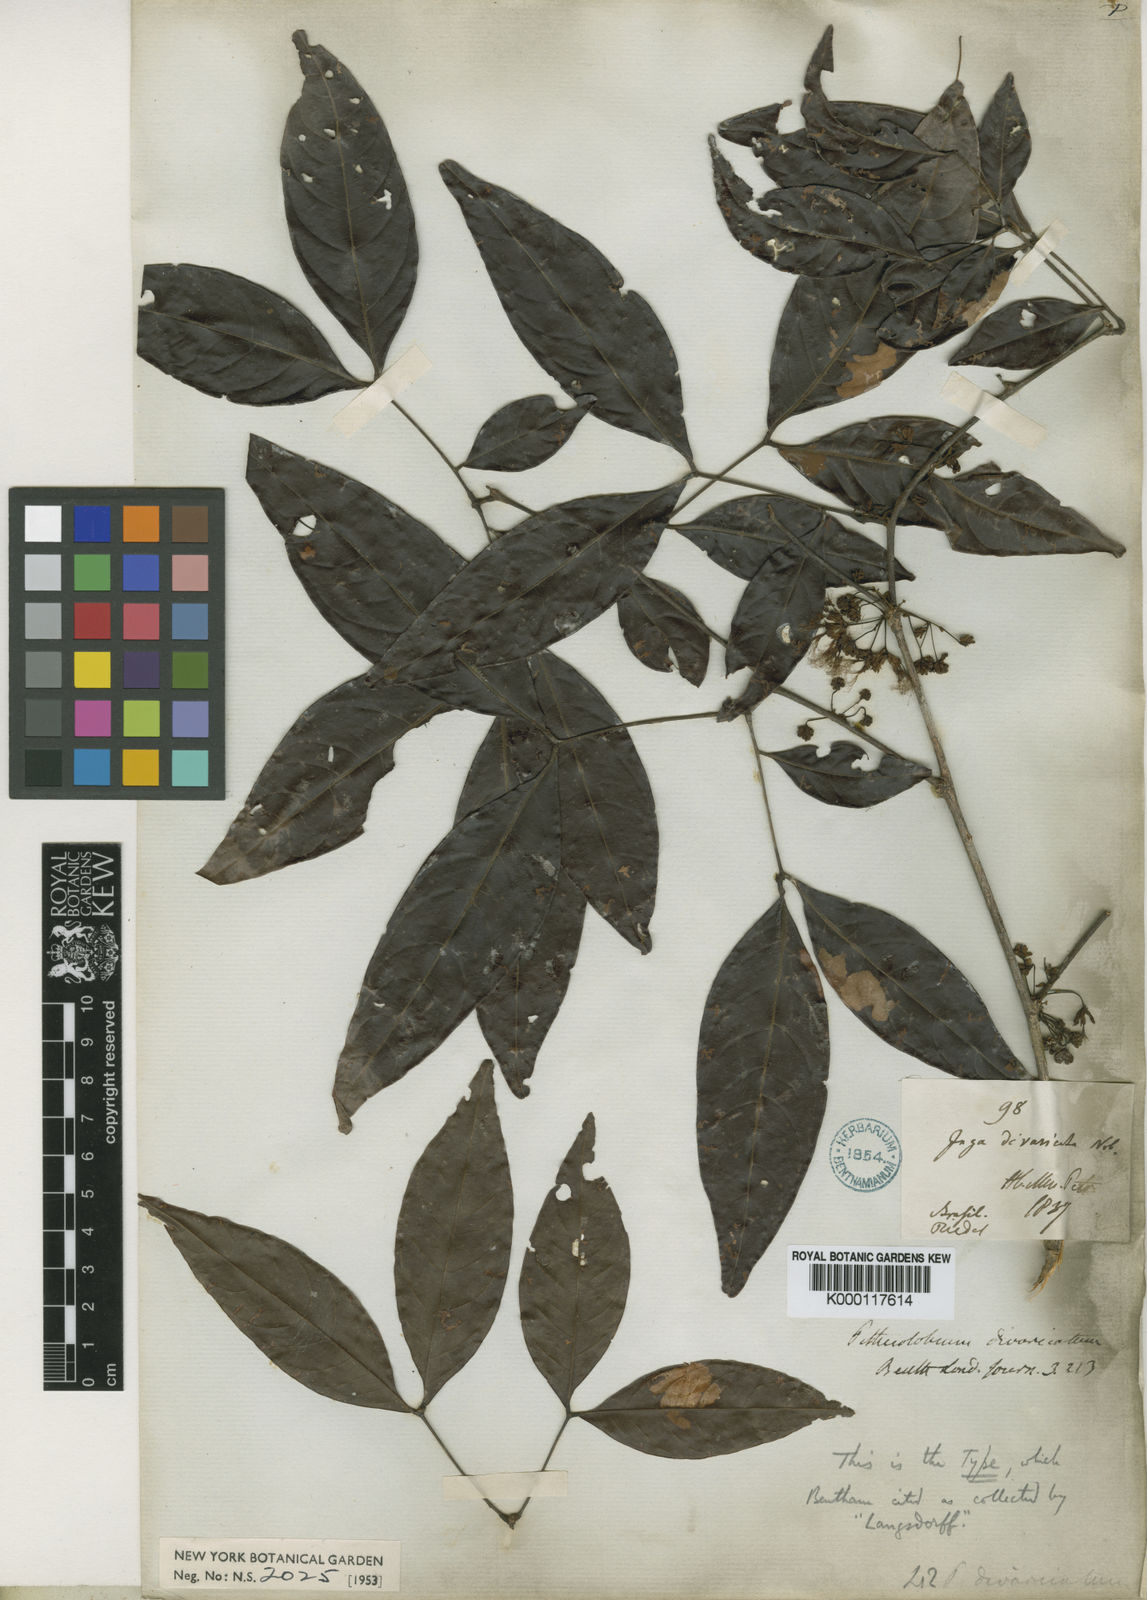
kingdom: Plantae
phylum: Tracheophyta
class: Magnoliopsida
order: Fabales
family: Fabaceae
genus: Zygia
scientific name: Zygia cataractae
